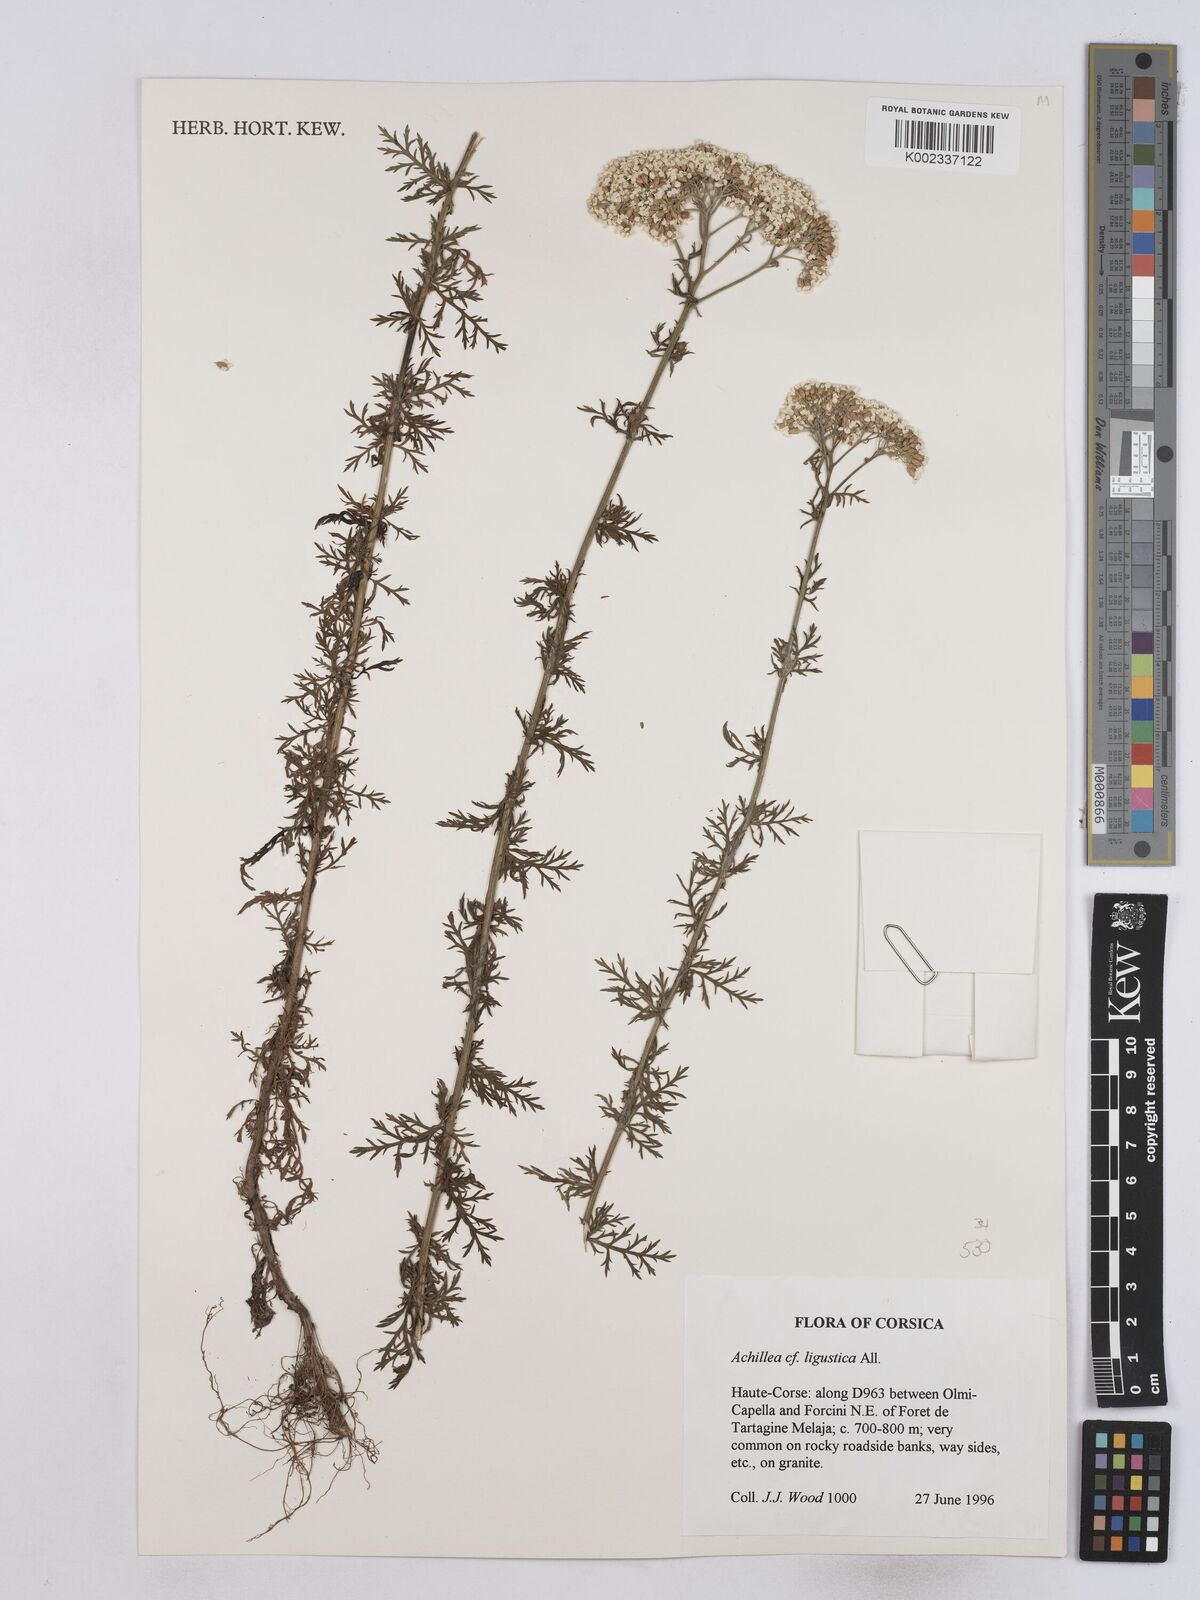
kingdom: Plantae
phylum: Tracheophyta
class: Magnoliopsida
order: Asterales
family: Asteraceae
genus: Achillea
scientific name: Achillea ligustica
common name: Southern yarrow
